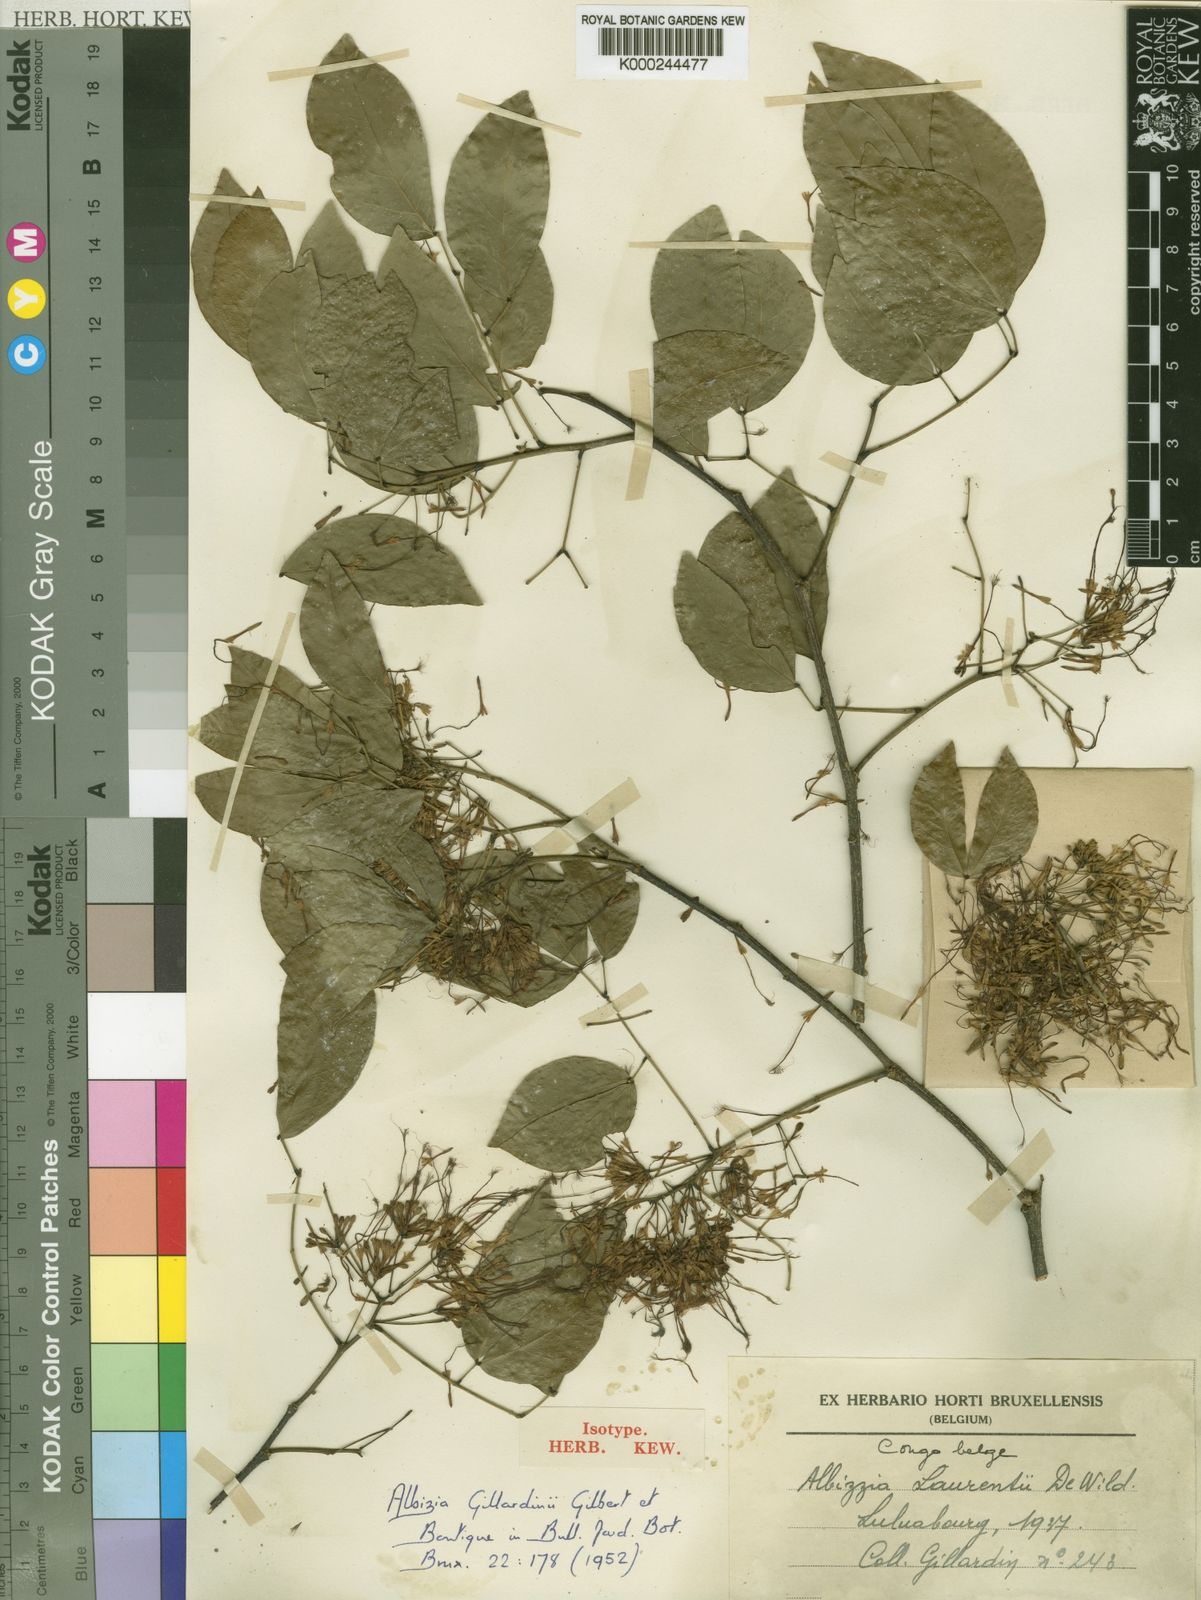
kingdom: Plantae
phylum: Tracheophyta
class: Magnoliopsida
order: Fabales
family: Fabaceae
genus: Albizia
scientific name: Albizia glaberrima
